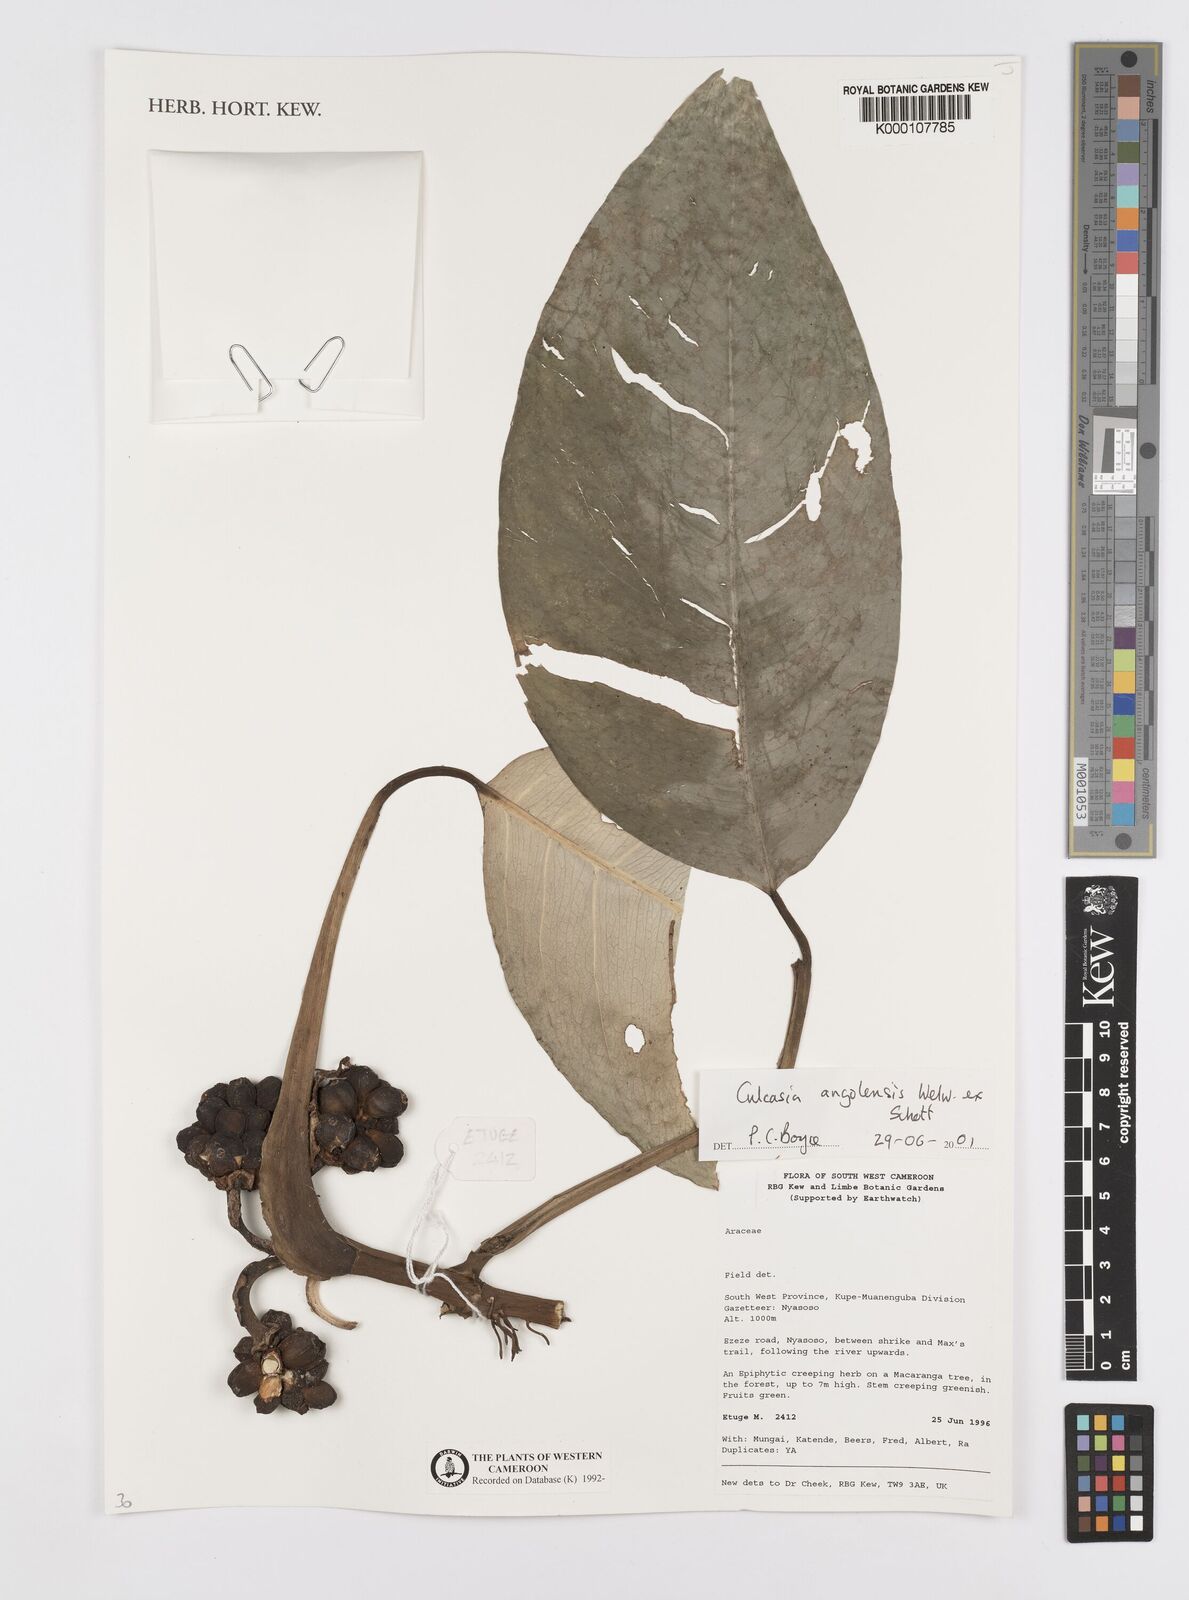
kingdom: Plantae
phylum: Tracheophyta
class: Liliopsida
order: Alismatales
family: Araceae
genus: Culcasia
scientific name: Culcasia angolensis
